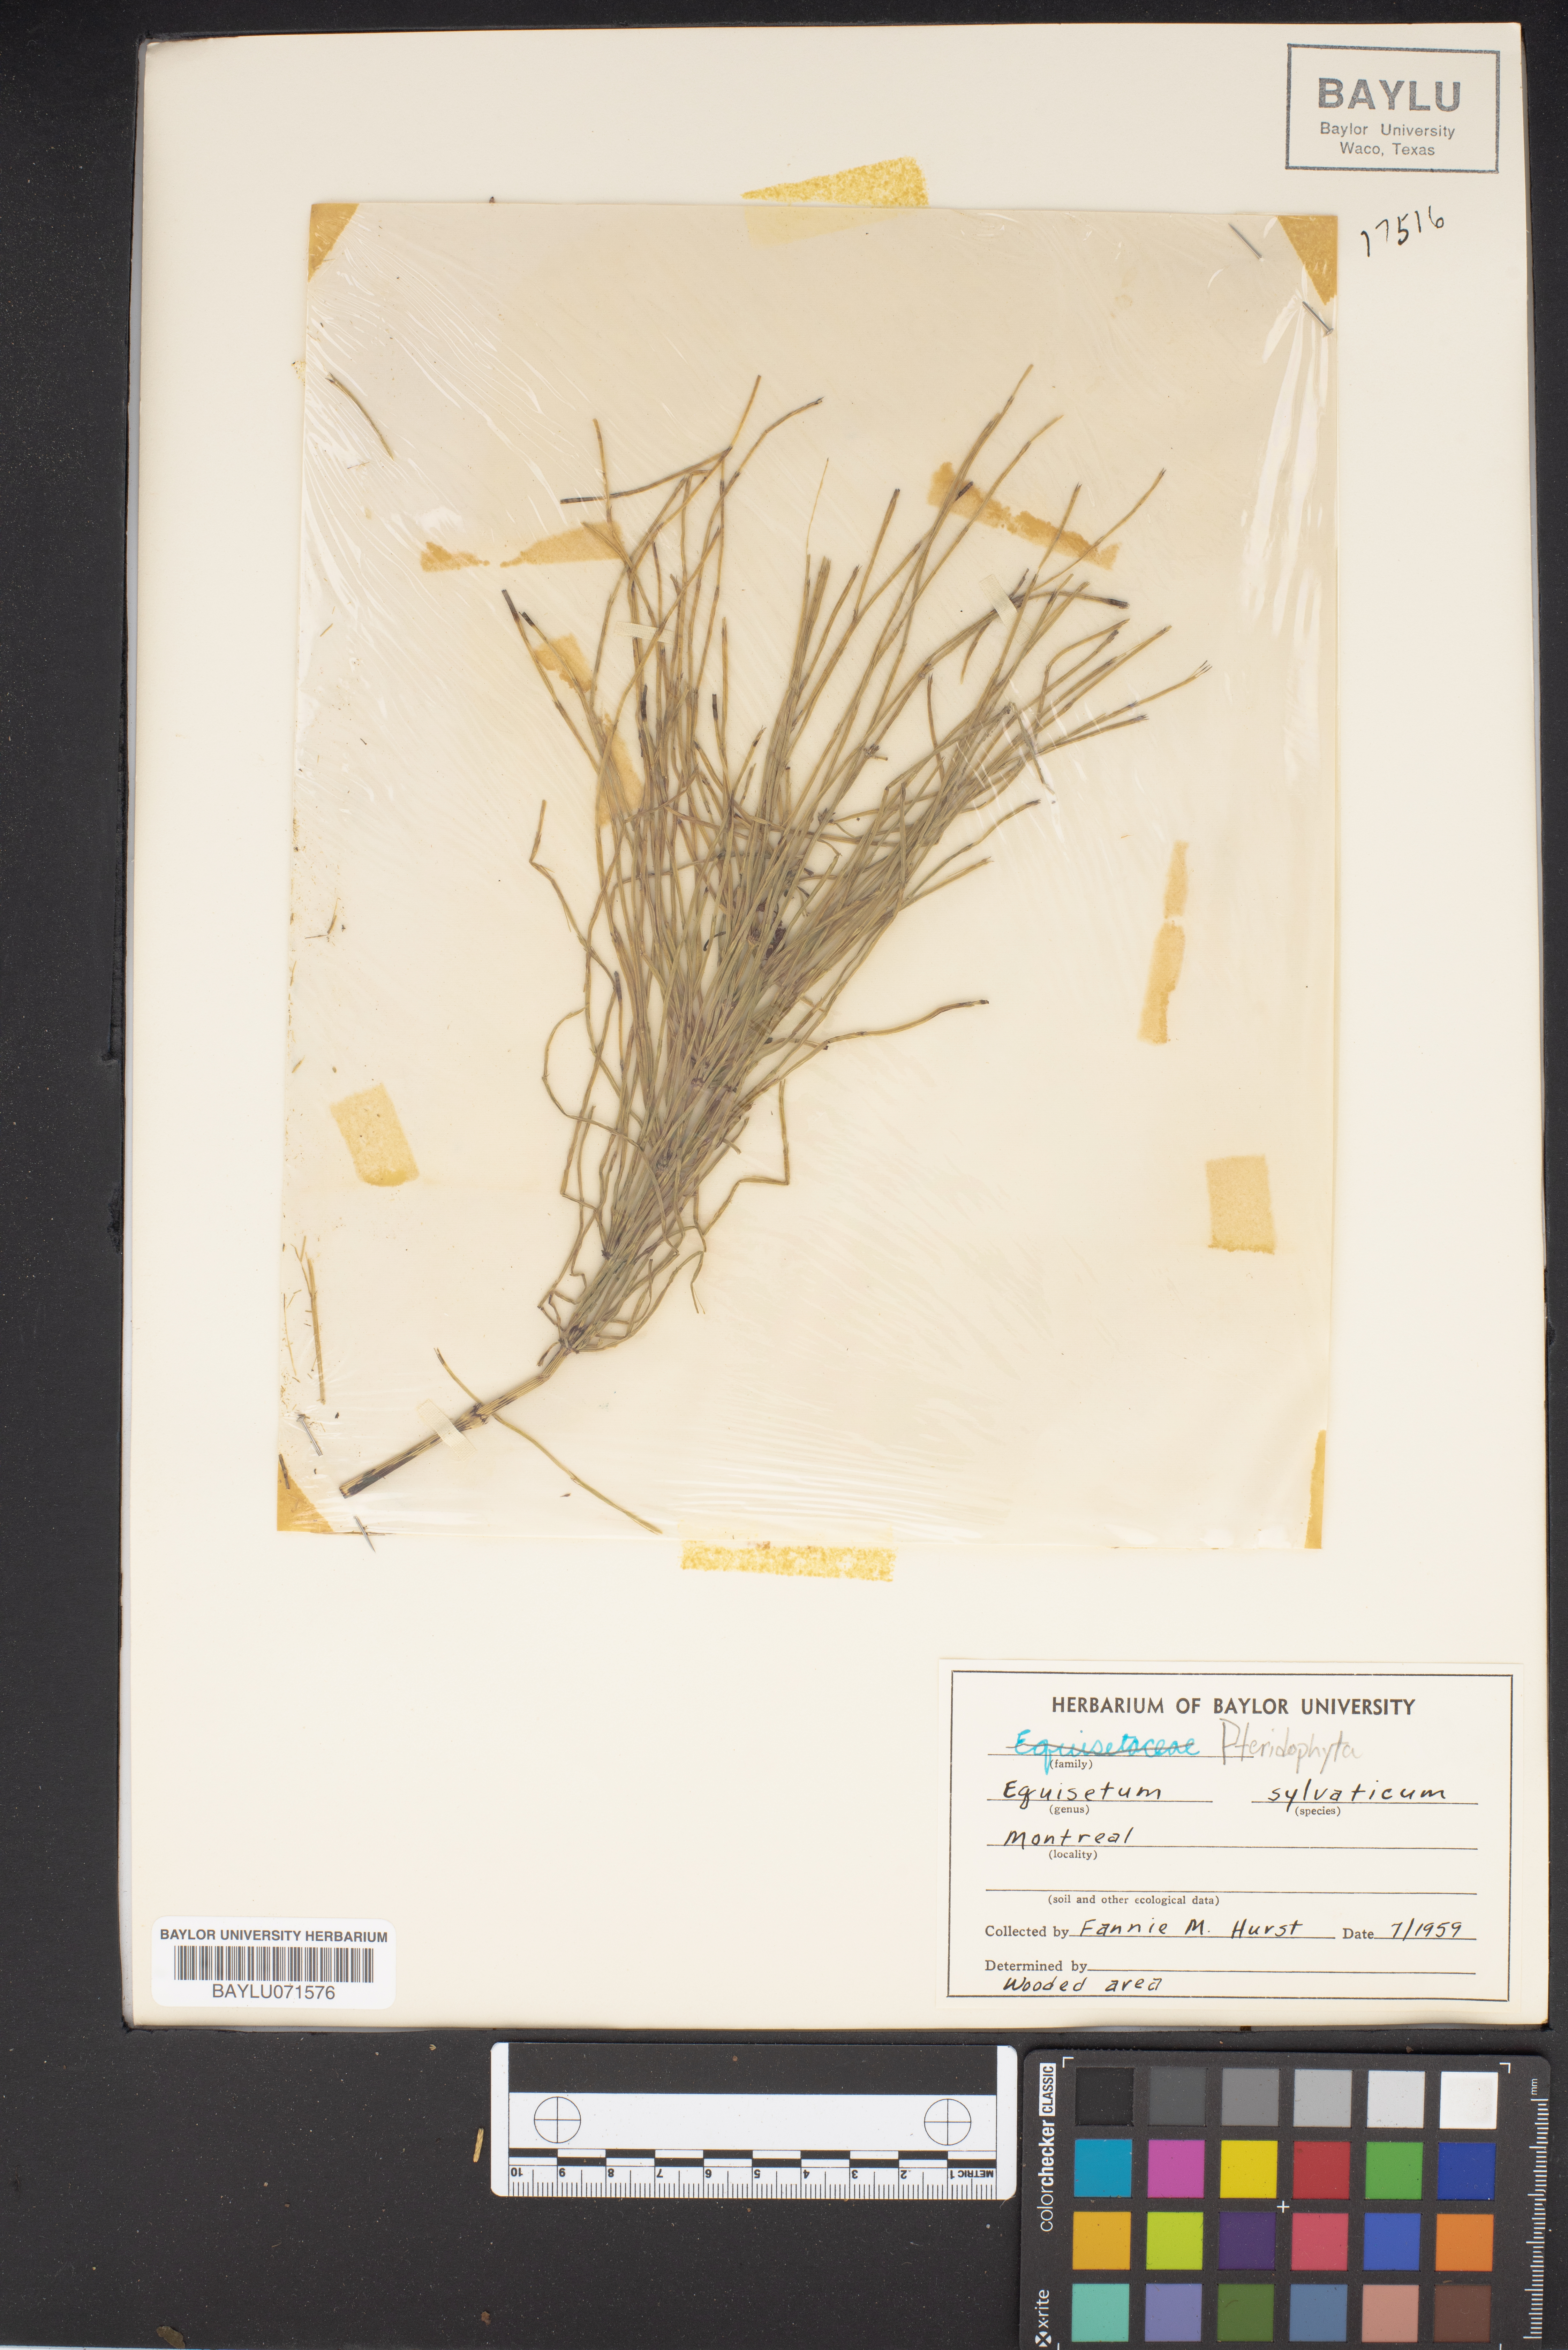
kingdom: Plantae
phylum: Tracheophyta
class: Polypodiopsida
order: Equisetales
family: Equisetaceae
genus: Equisetum
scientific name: Equisetum sylvaticum
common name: Wood horsetail
